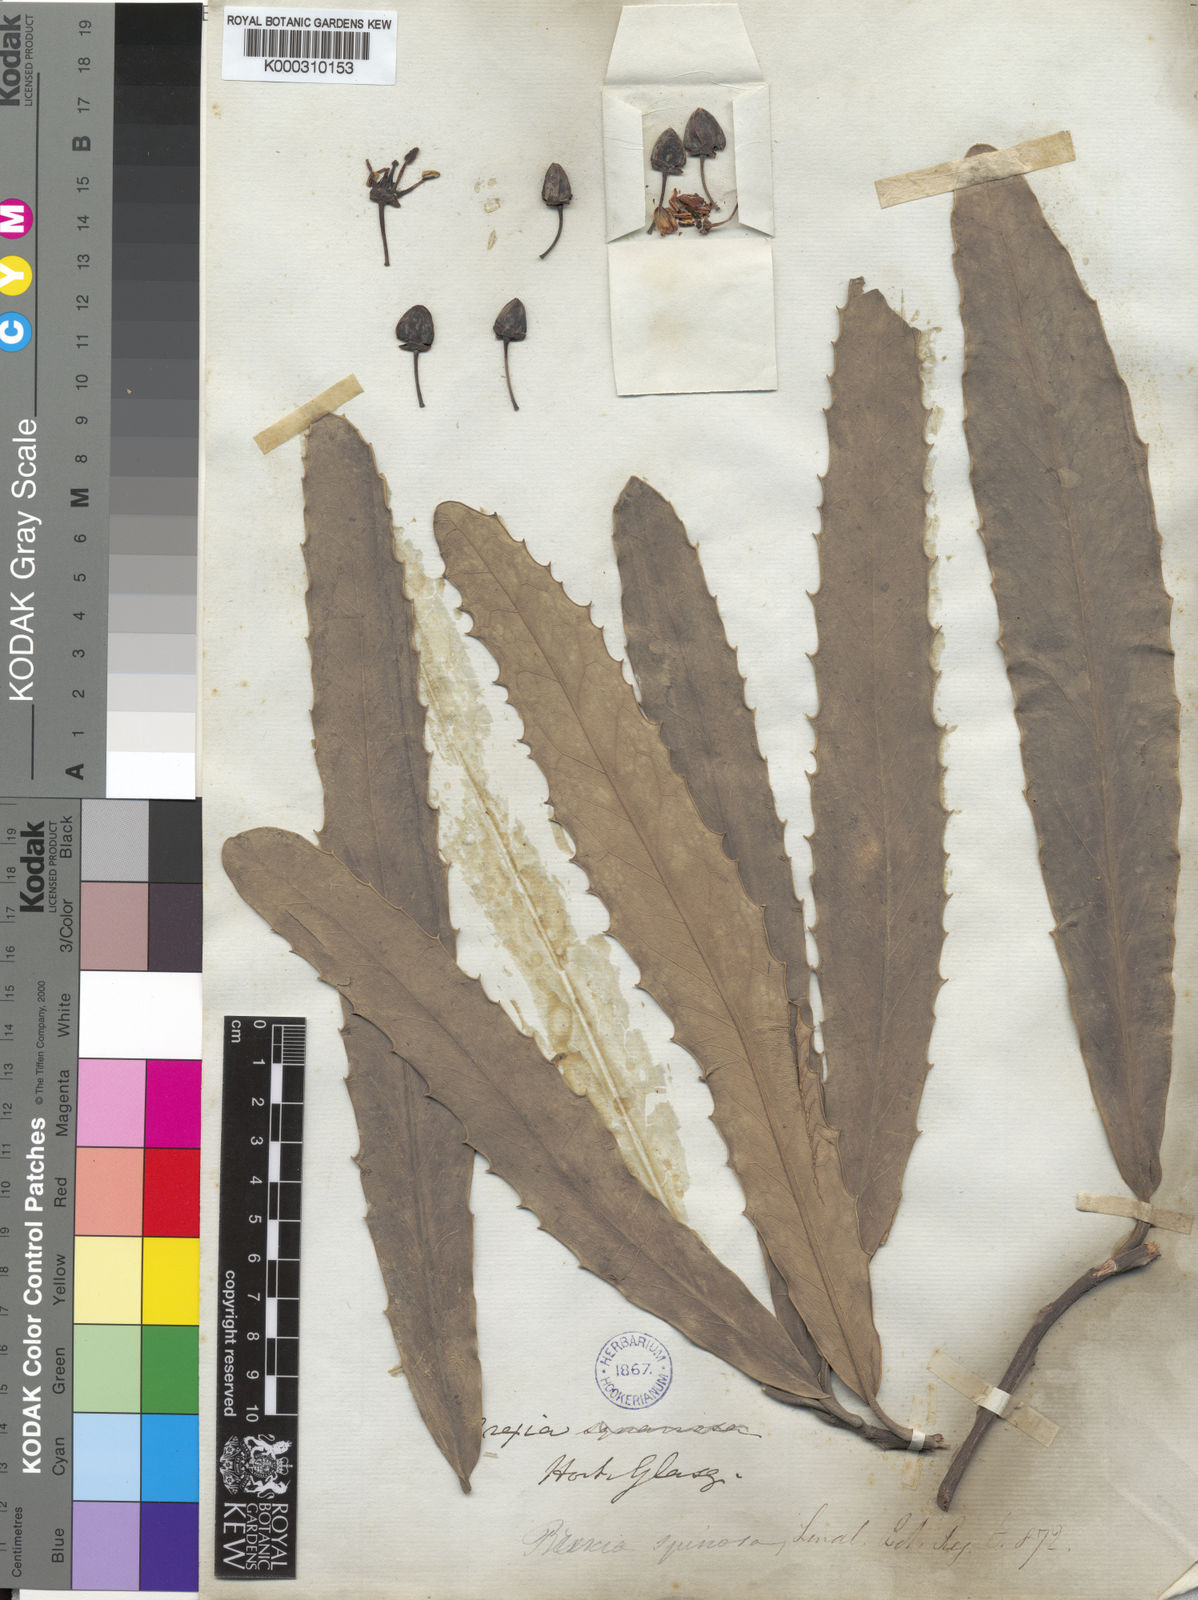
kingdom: Plantae
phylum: Tracheophyta
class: Magnoliopsida
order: Celastrales
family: Celastraceae
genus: Brexia
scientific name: Brexia madagascariensis
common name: Brexia
